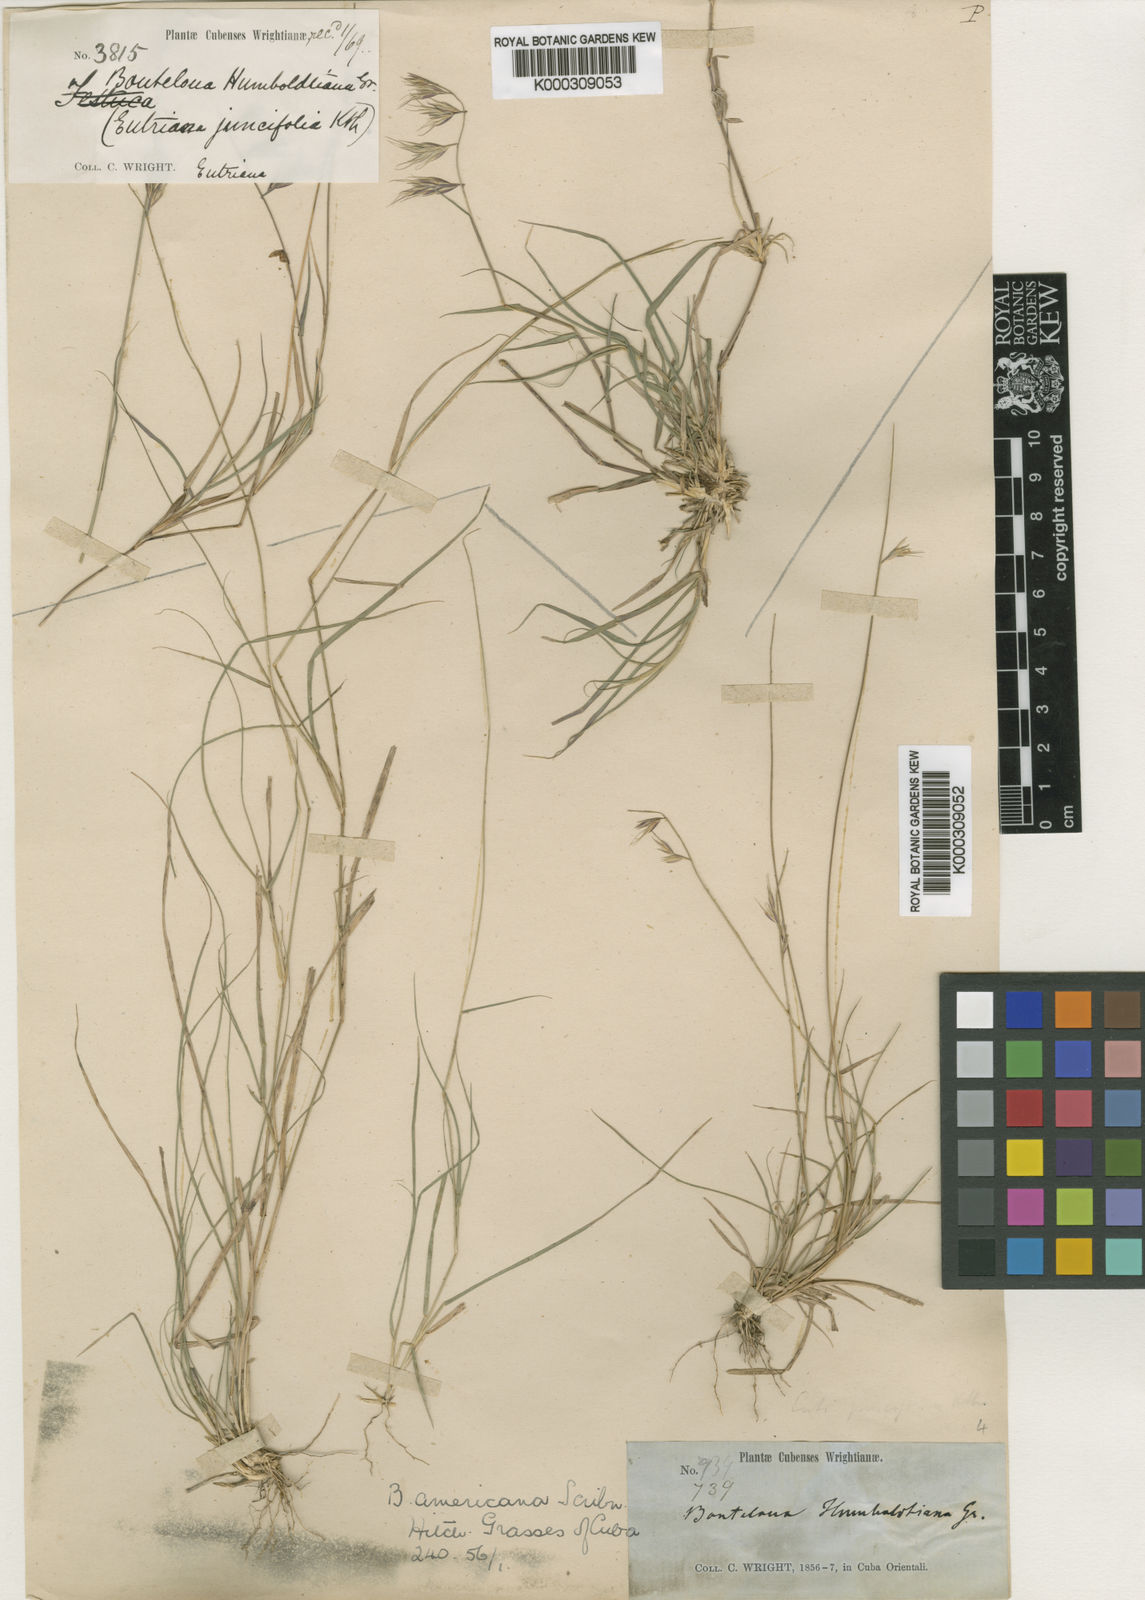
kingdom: Plantae
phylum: Tracheophyta
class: Liliopsida
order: Poales
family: Poaceae
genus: Bouteloua
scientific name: Bouteloua repens
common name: Slender grama
